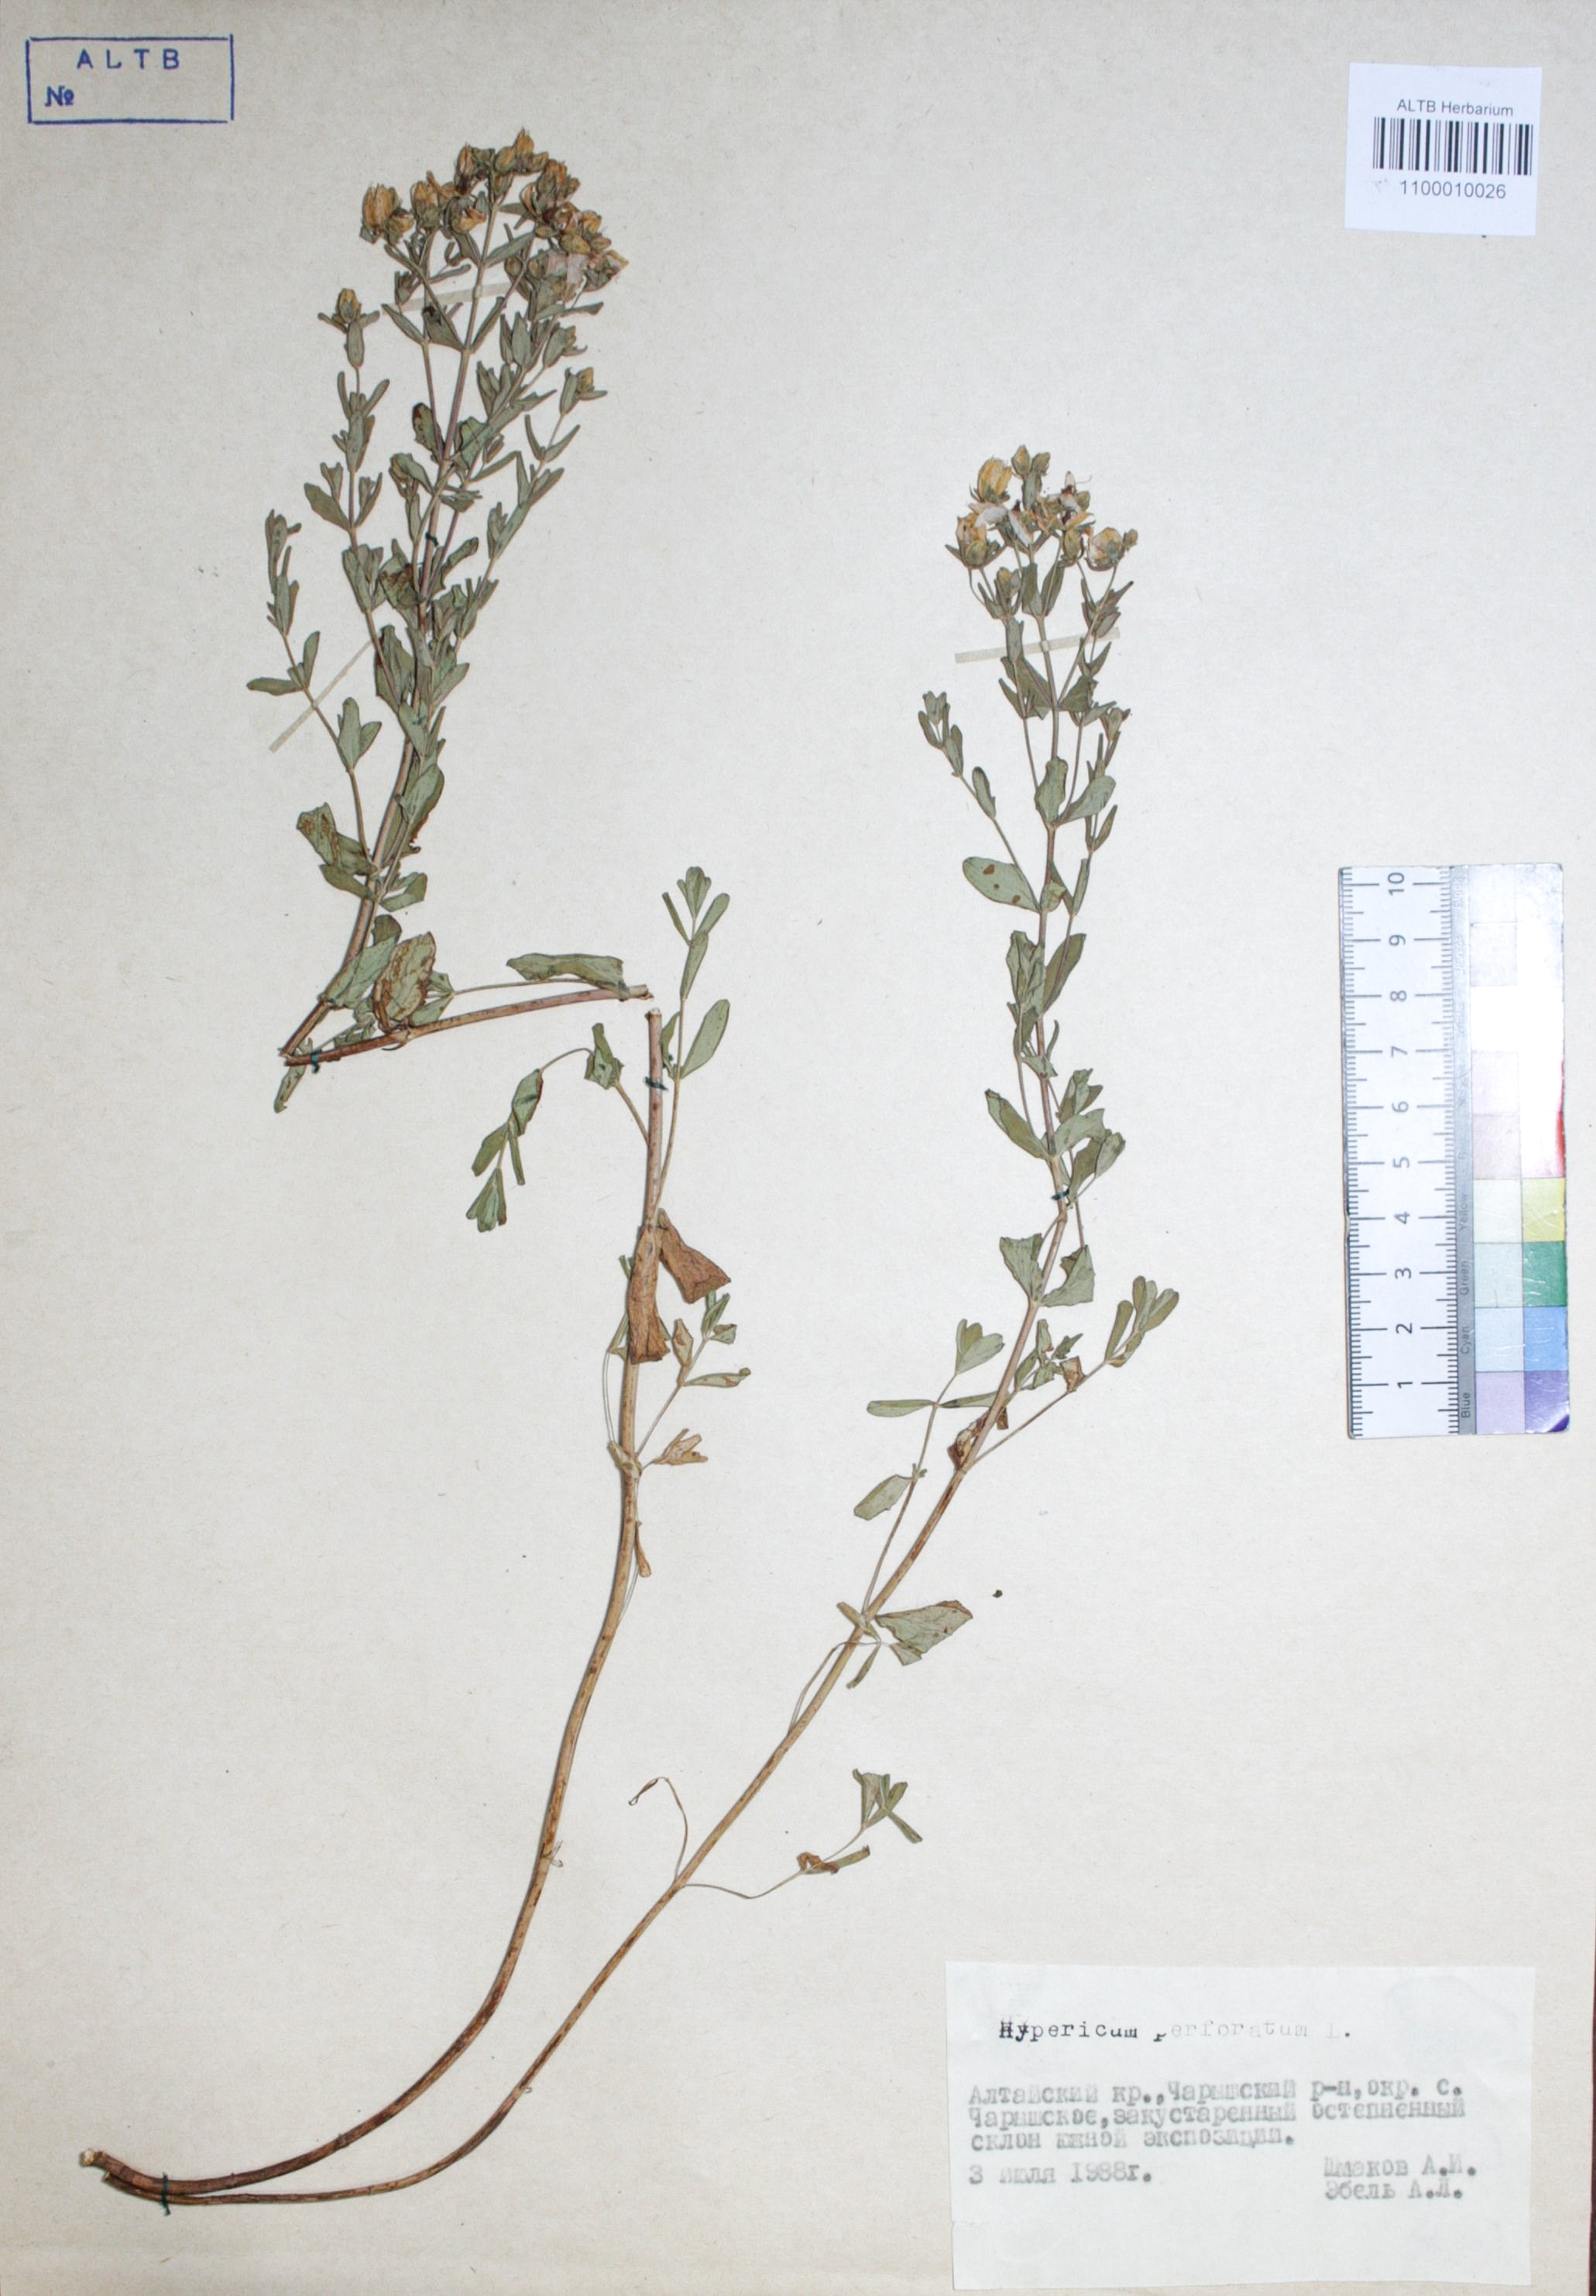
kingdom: Plantae
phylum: Tracheophyta
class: Magnoliopsida
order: Malpighiales
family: Hypericaceae
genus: Hypericum
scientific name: Hypericum perforatum
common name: Common st. johnswort
